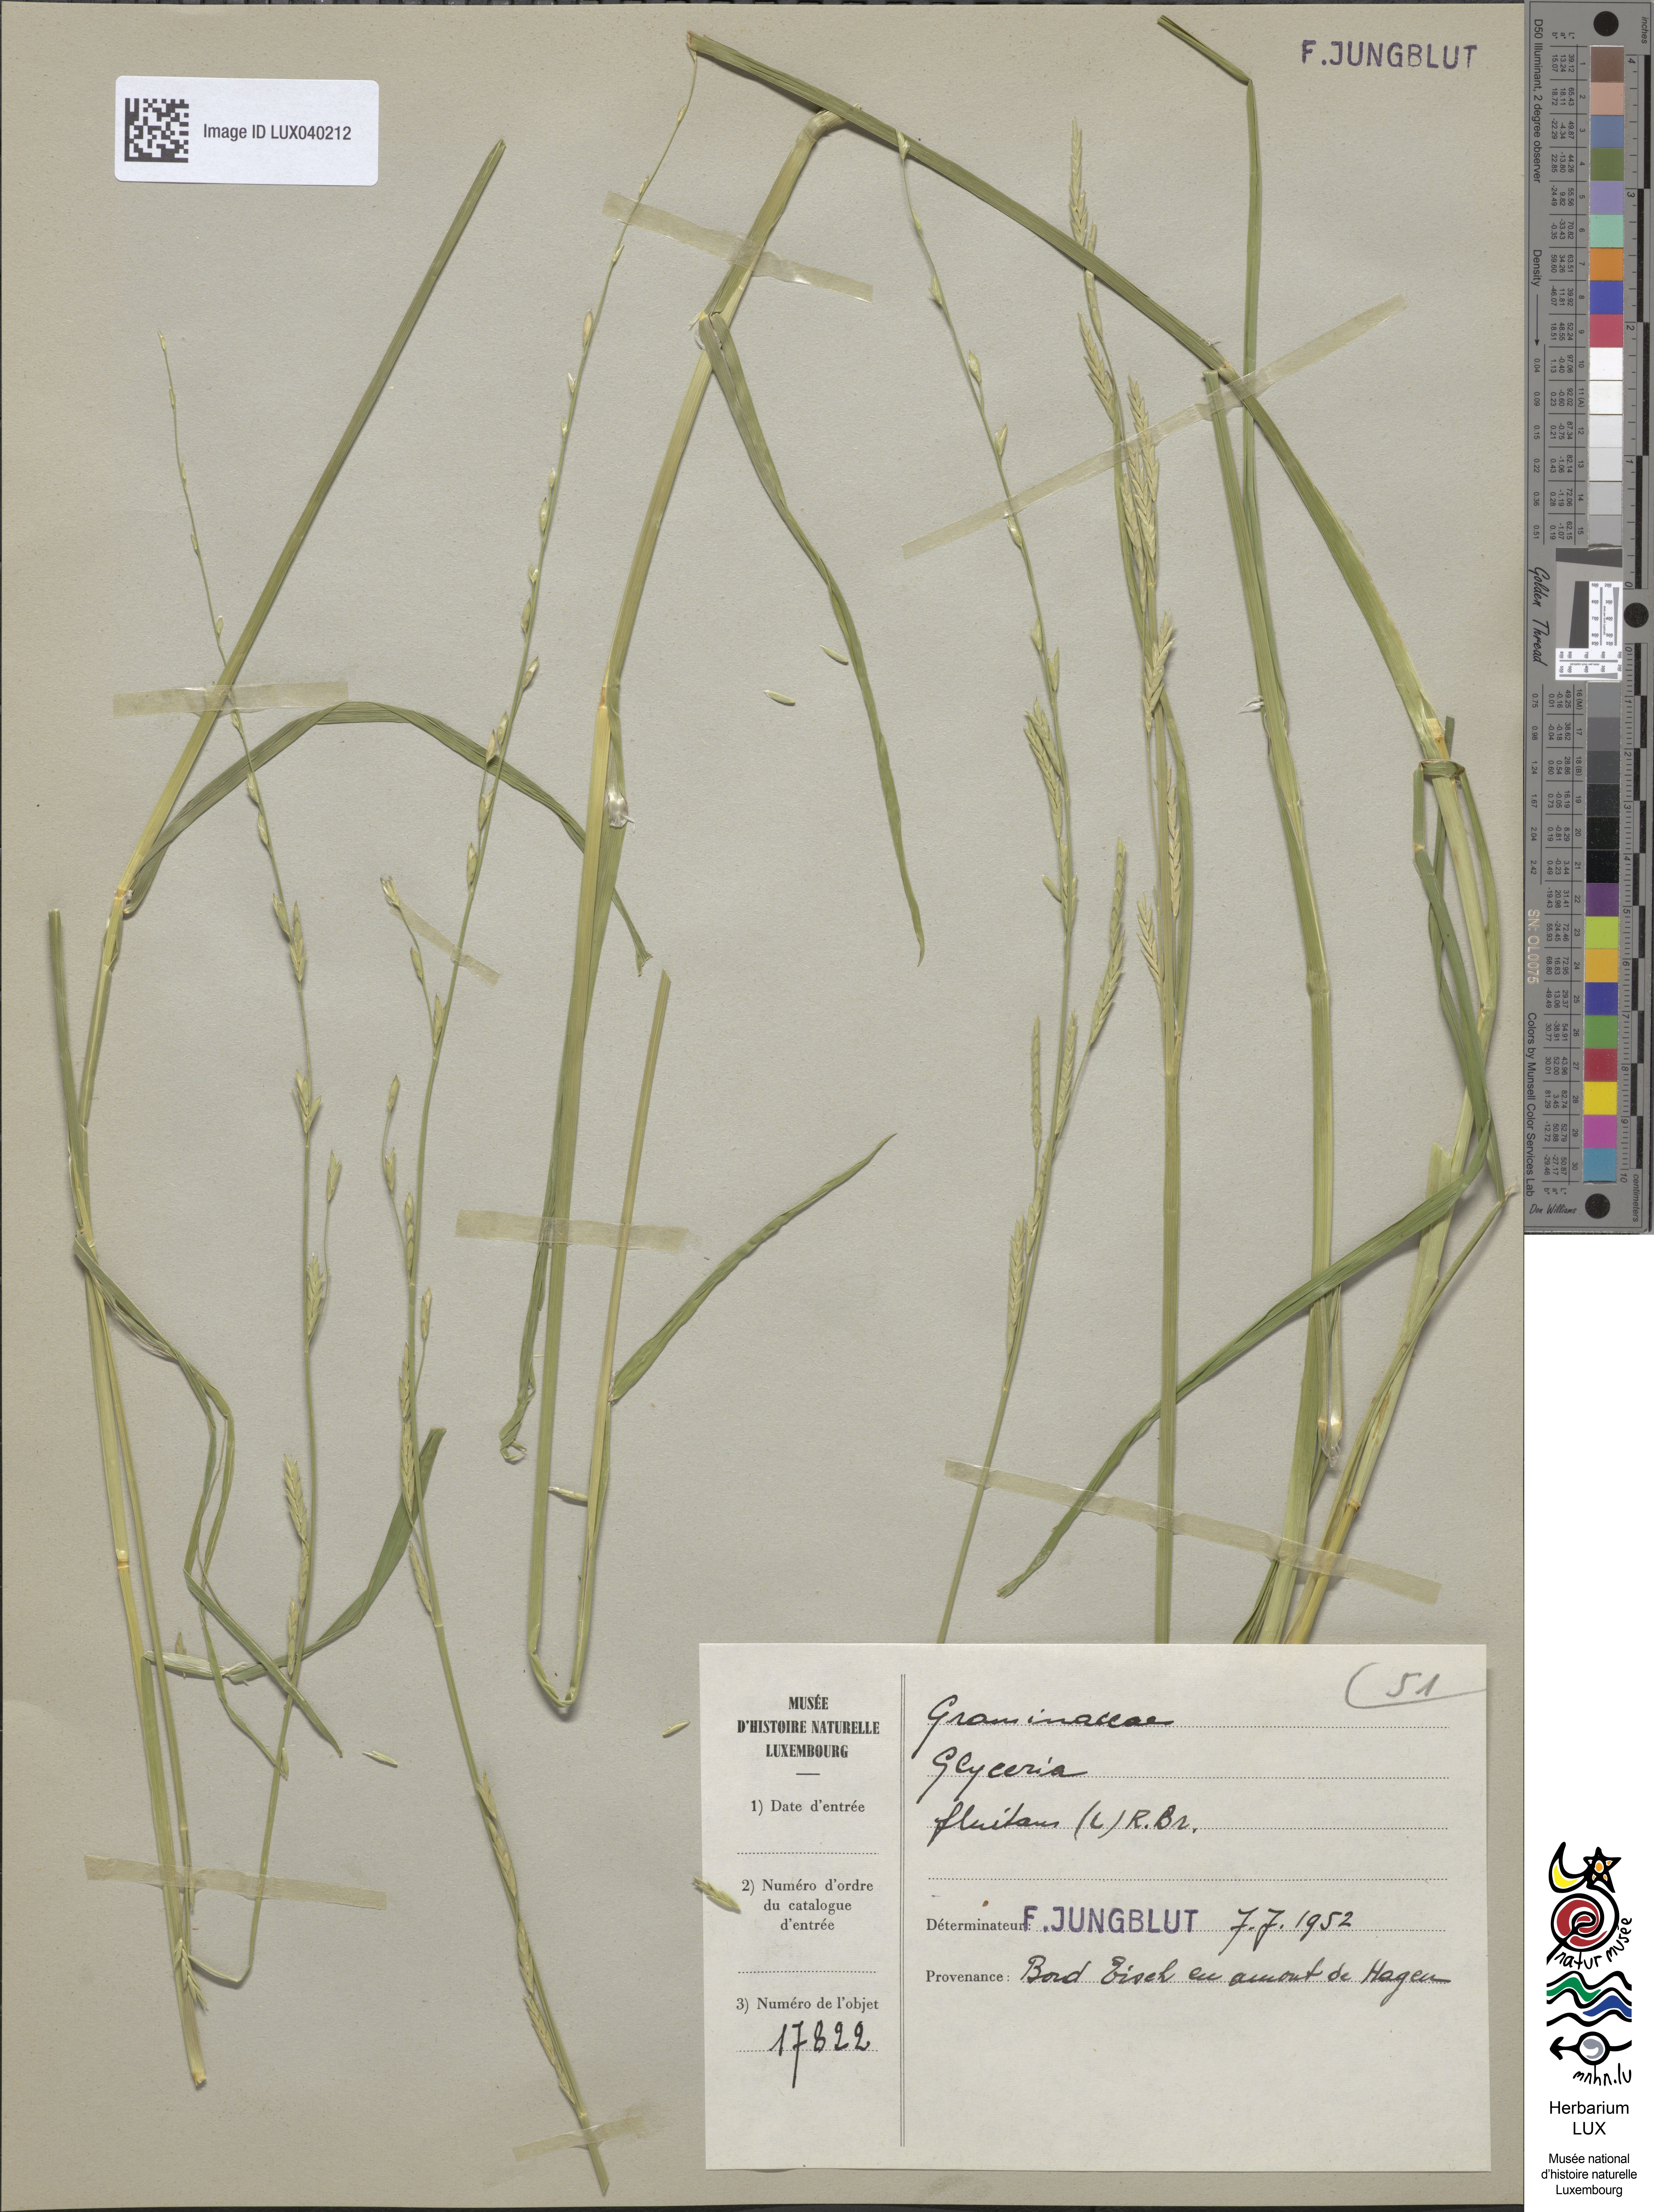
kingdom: Plantae
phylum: Tracheophyta
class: Liliopsida
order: Poales
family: Poaceae
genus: Glyceria
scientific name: Glyceria fluitans
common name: Floating sweet-grass
